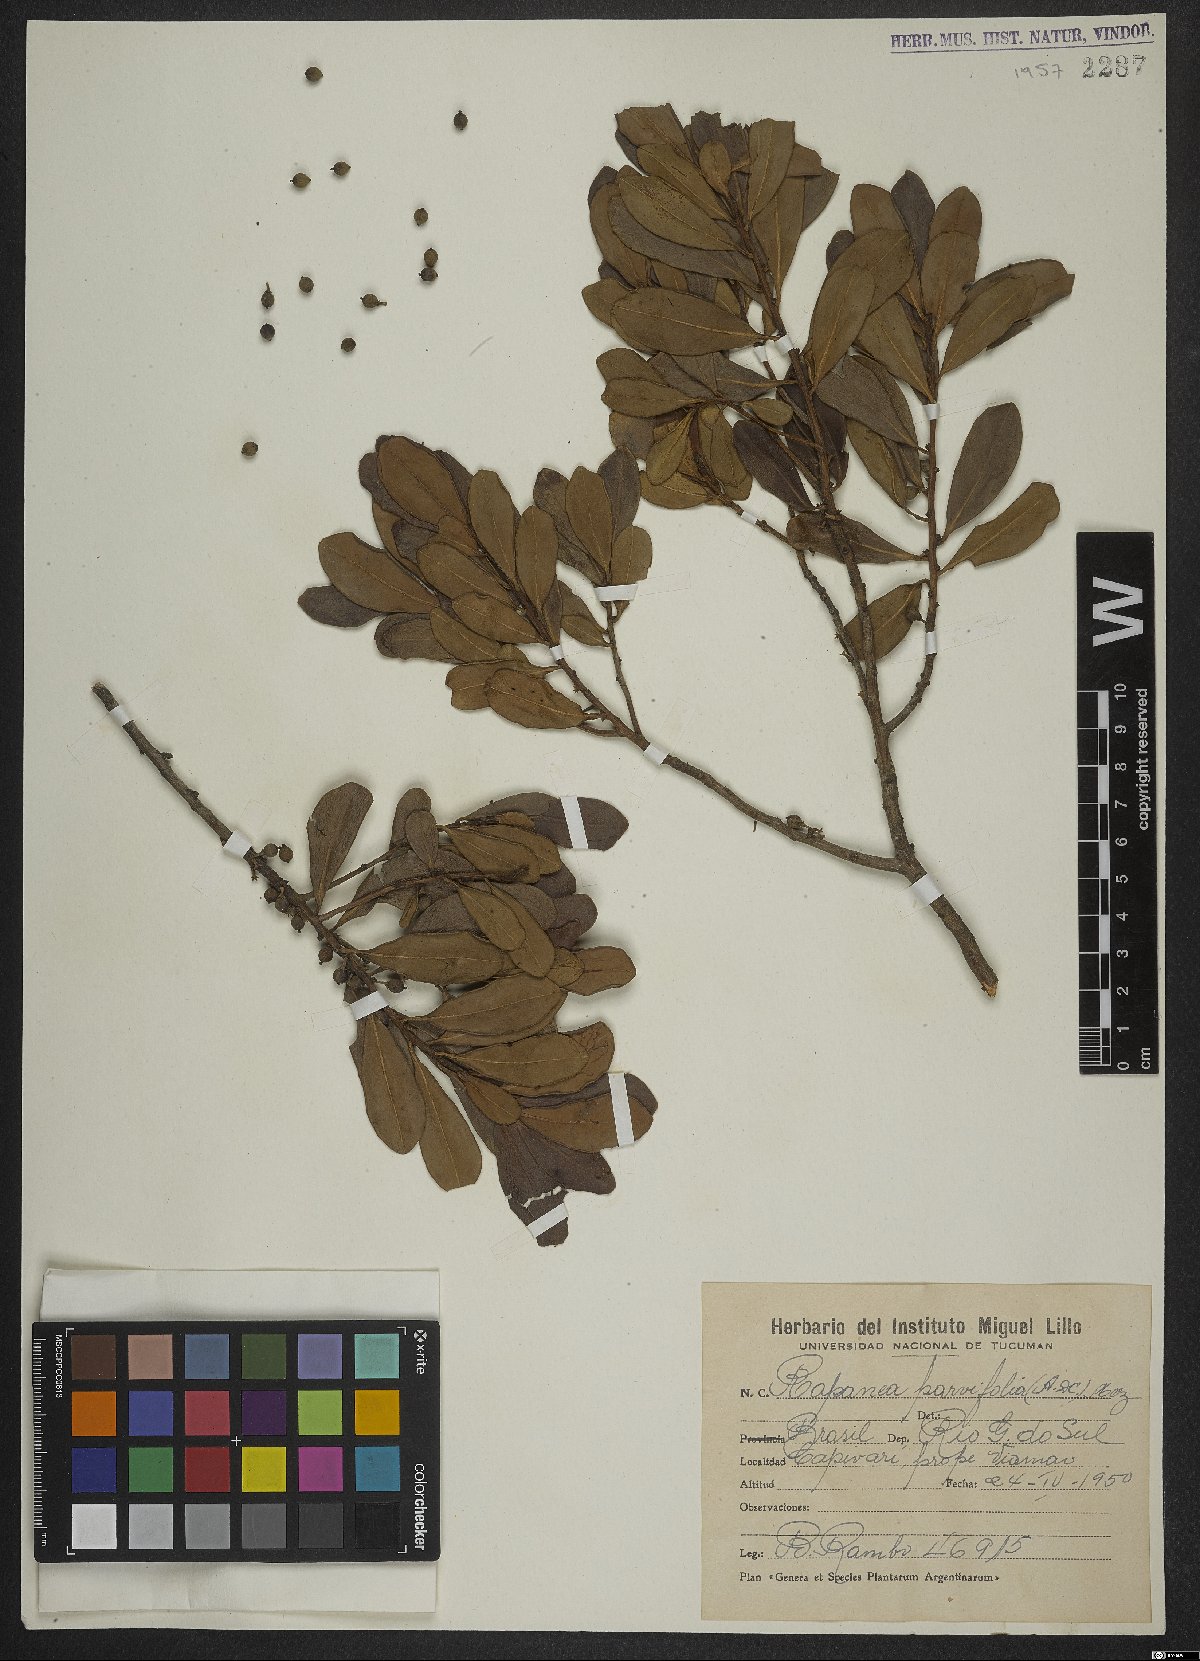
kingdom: Plantae
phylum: Tracheophyta
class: Magnoliopsida
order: Ericales
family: Primulaceae
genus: Myrsine
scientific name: Myrsine parvifolia
